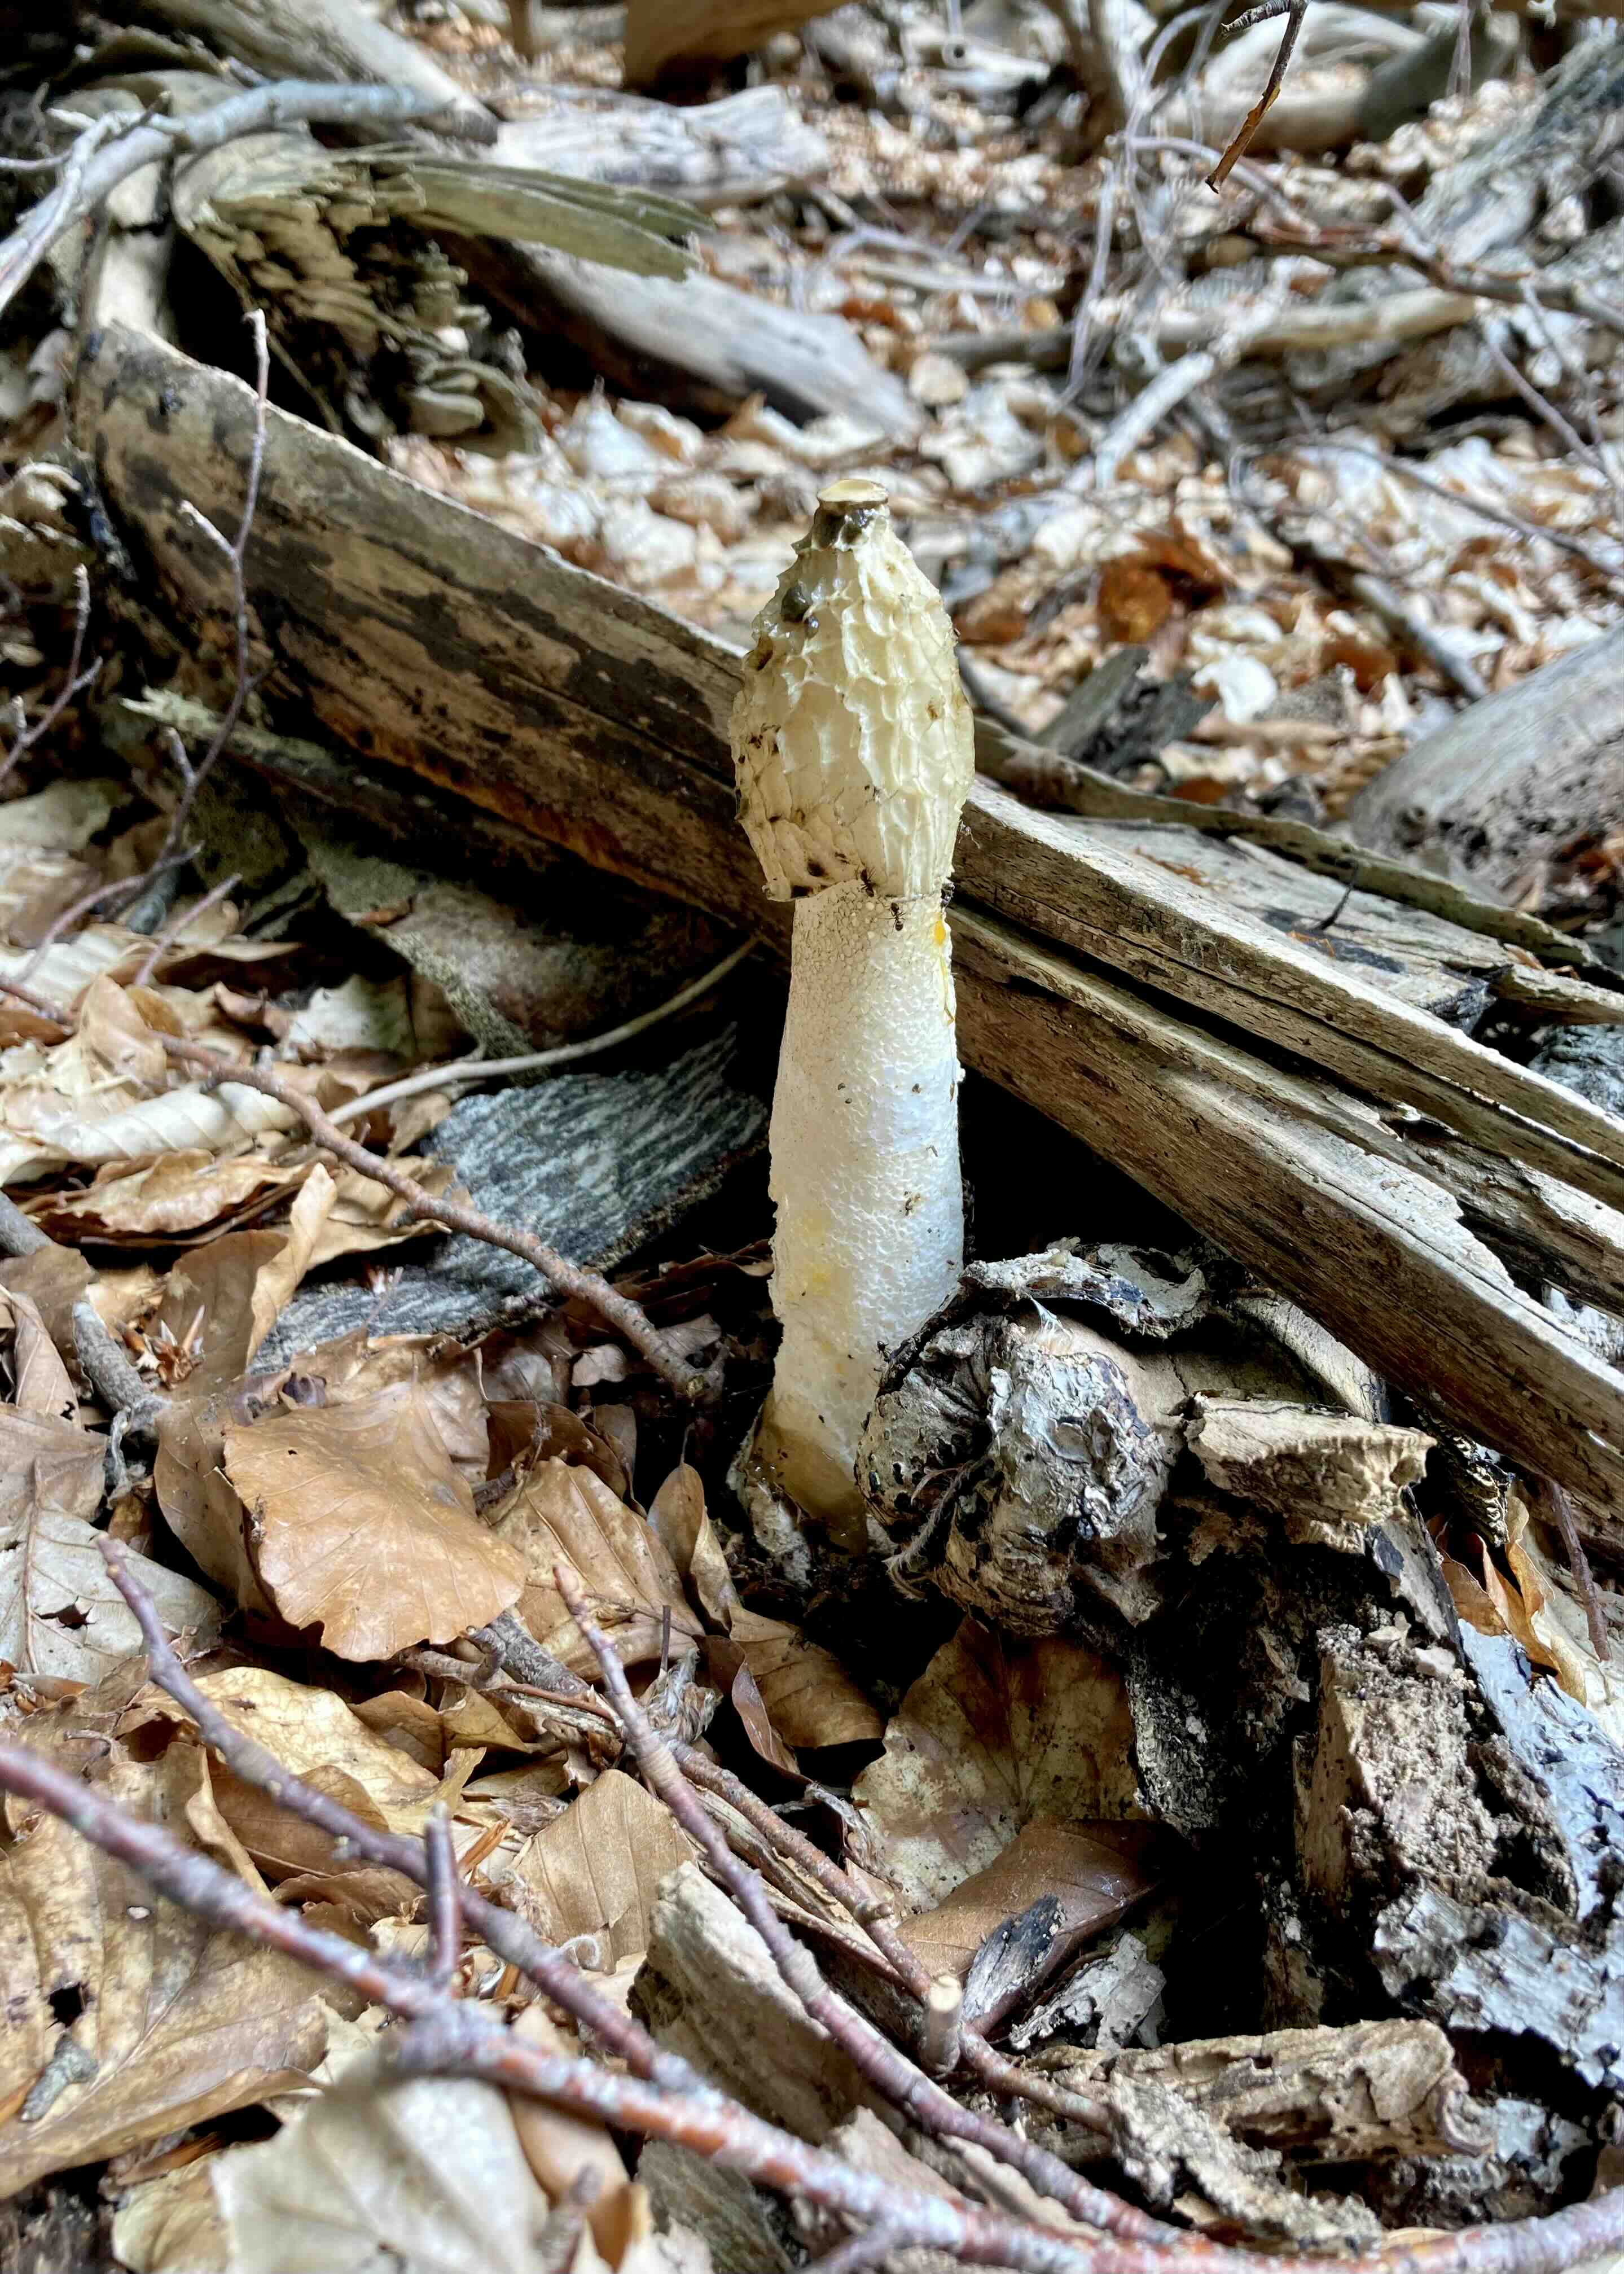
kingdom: Fungi
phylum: Basidiomycota
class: Agaricomycetes
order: Phallales
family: Phallaceae
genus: Phallus
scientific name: Phallus impudicus
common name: almindelig stinksvamp
